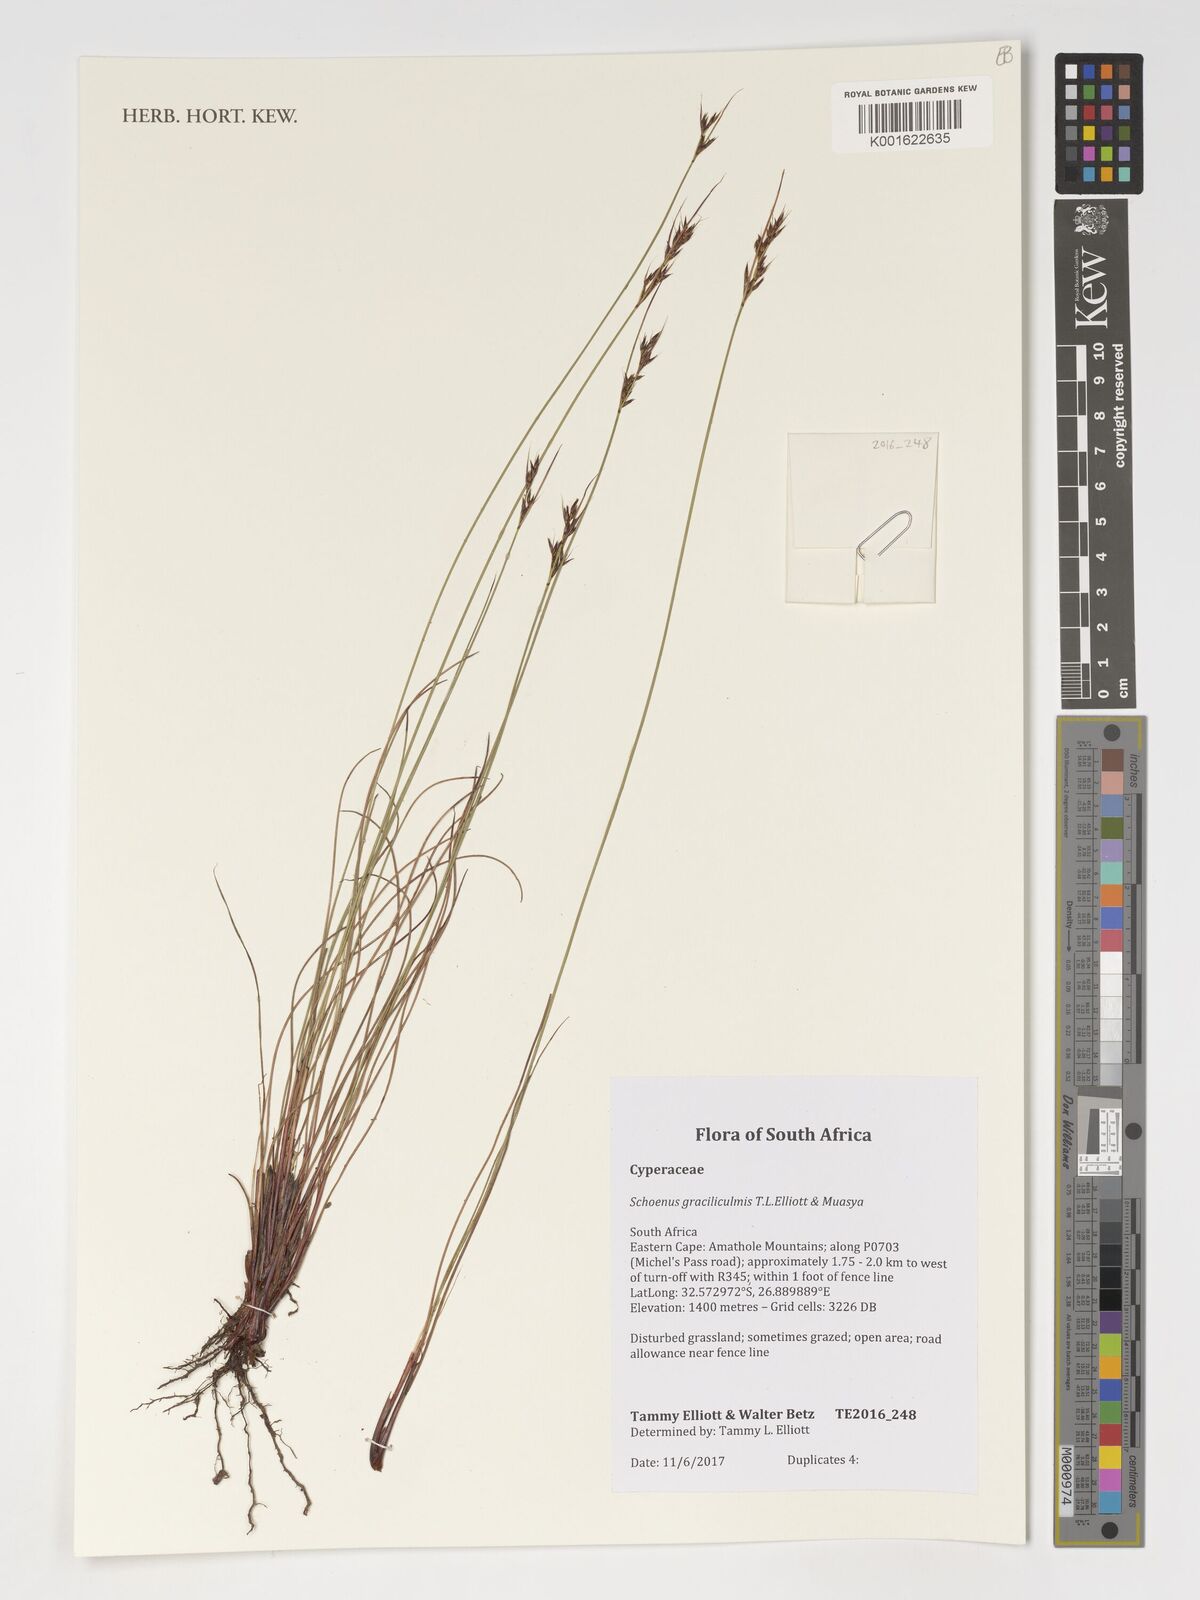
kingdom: Plantae
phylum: Tracheophyta
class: Liliopsida
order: Poales
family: Cyperaceae
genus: Schoenus
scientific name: Schoenus
